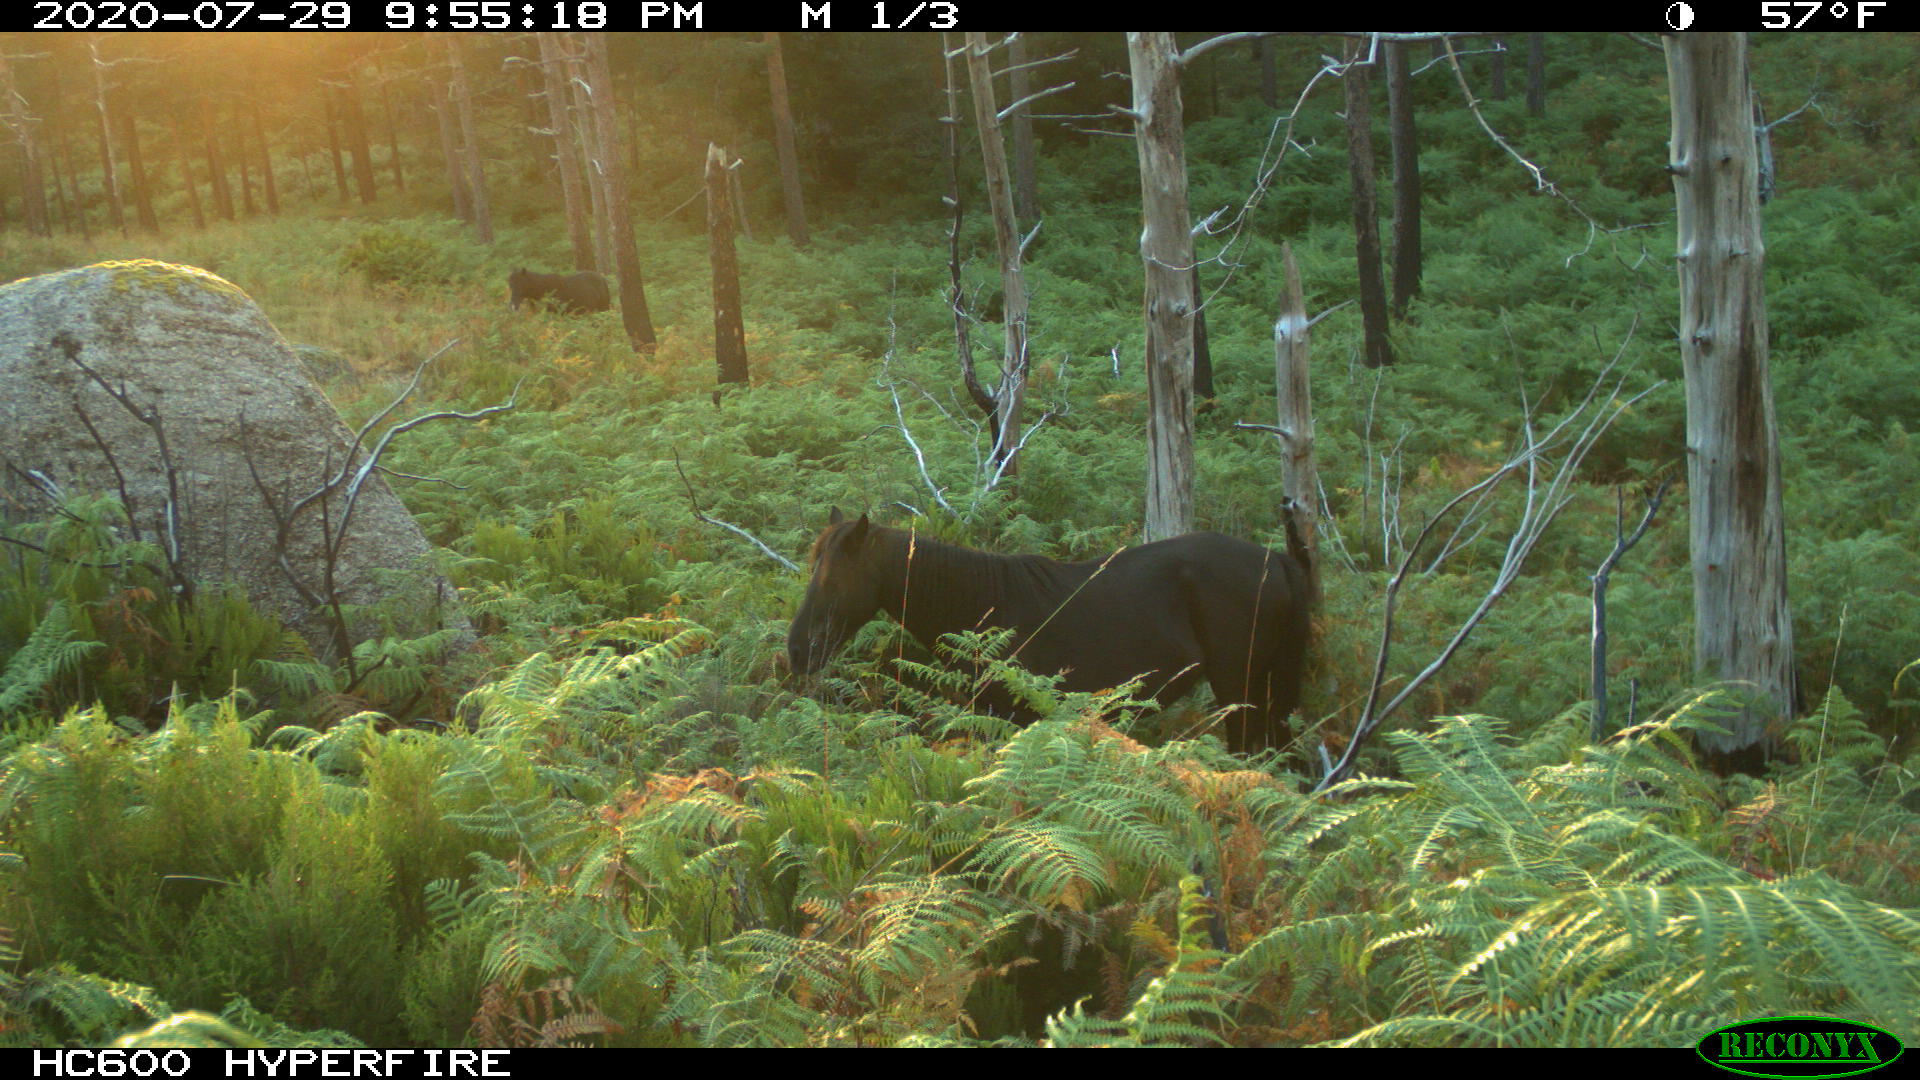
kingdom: Animalia
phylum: Chordata
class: Mammalia
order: Perissodactyla
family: Equidae
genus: Equus
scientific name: Equus caballus
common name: Horse
